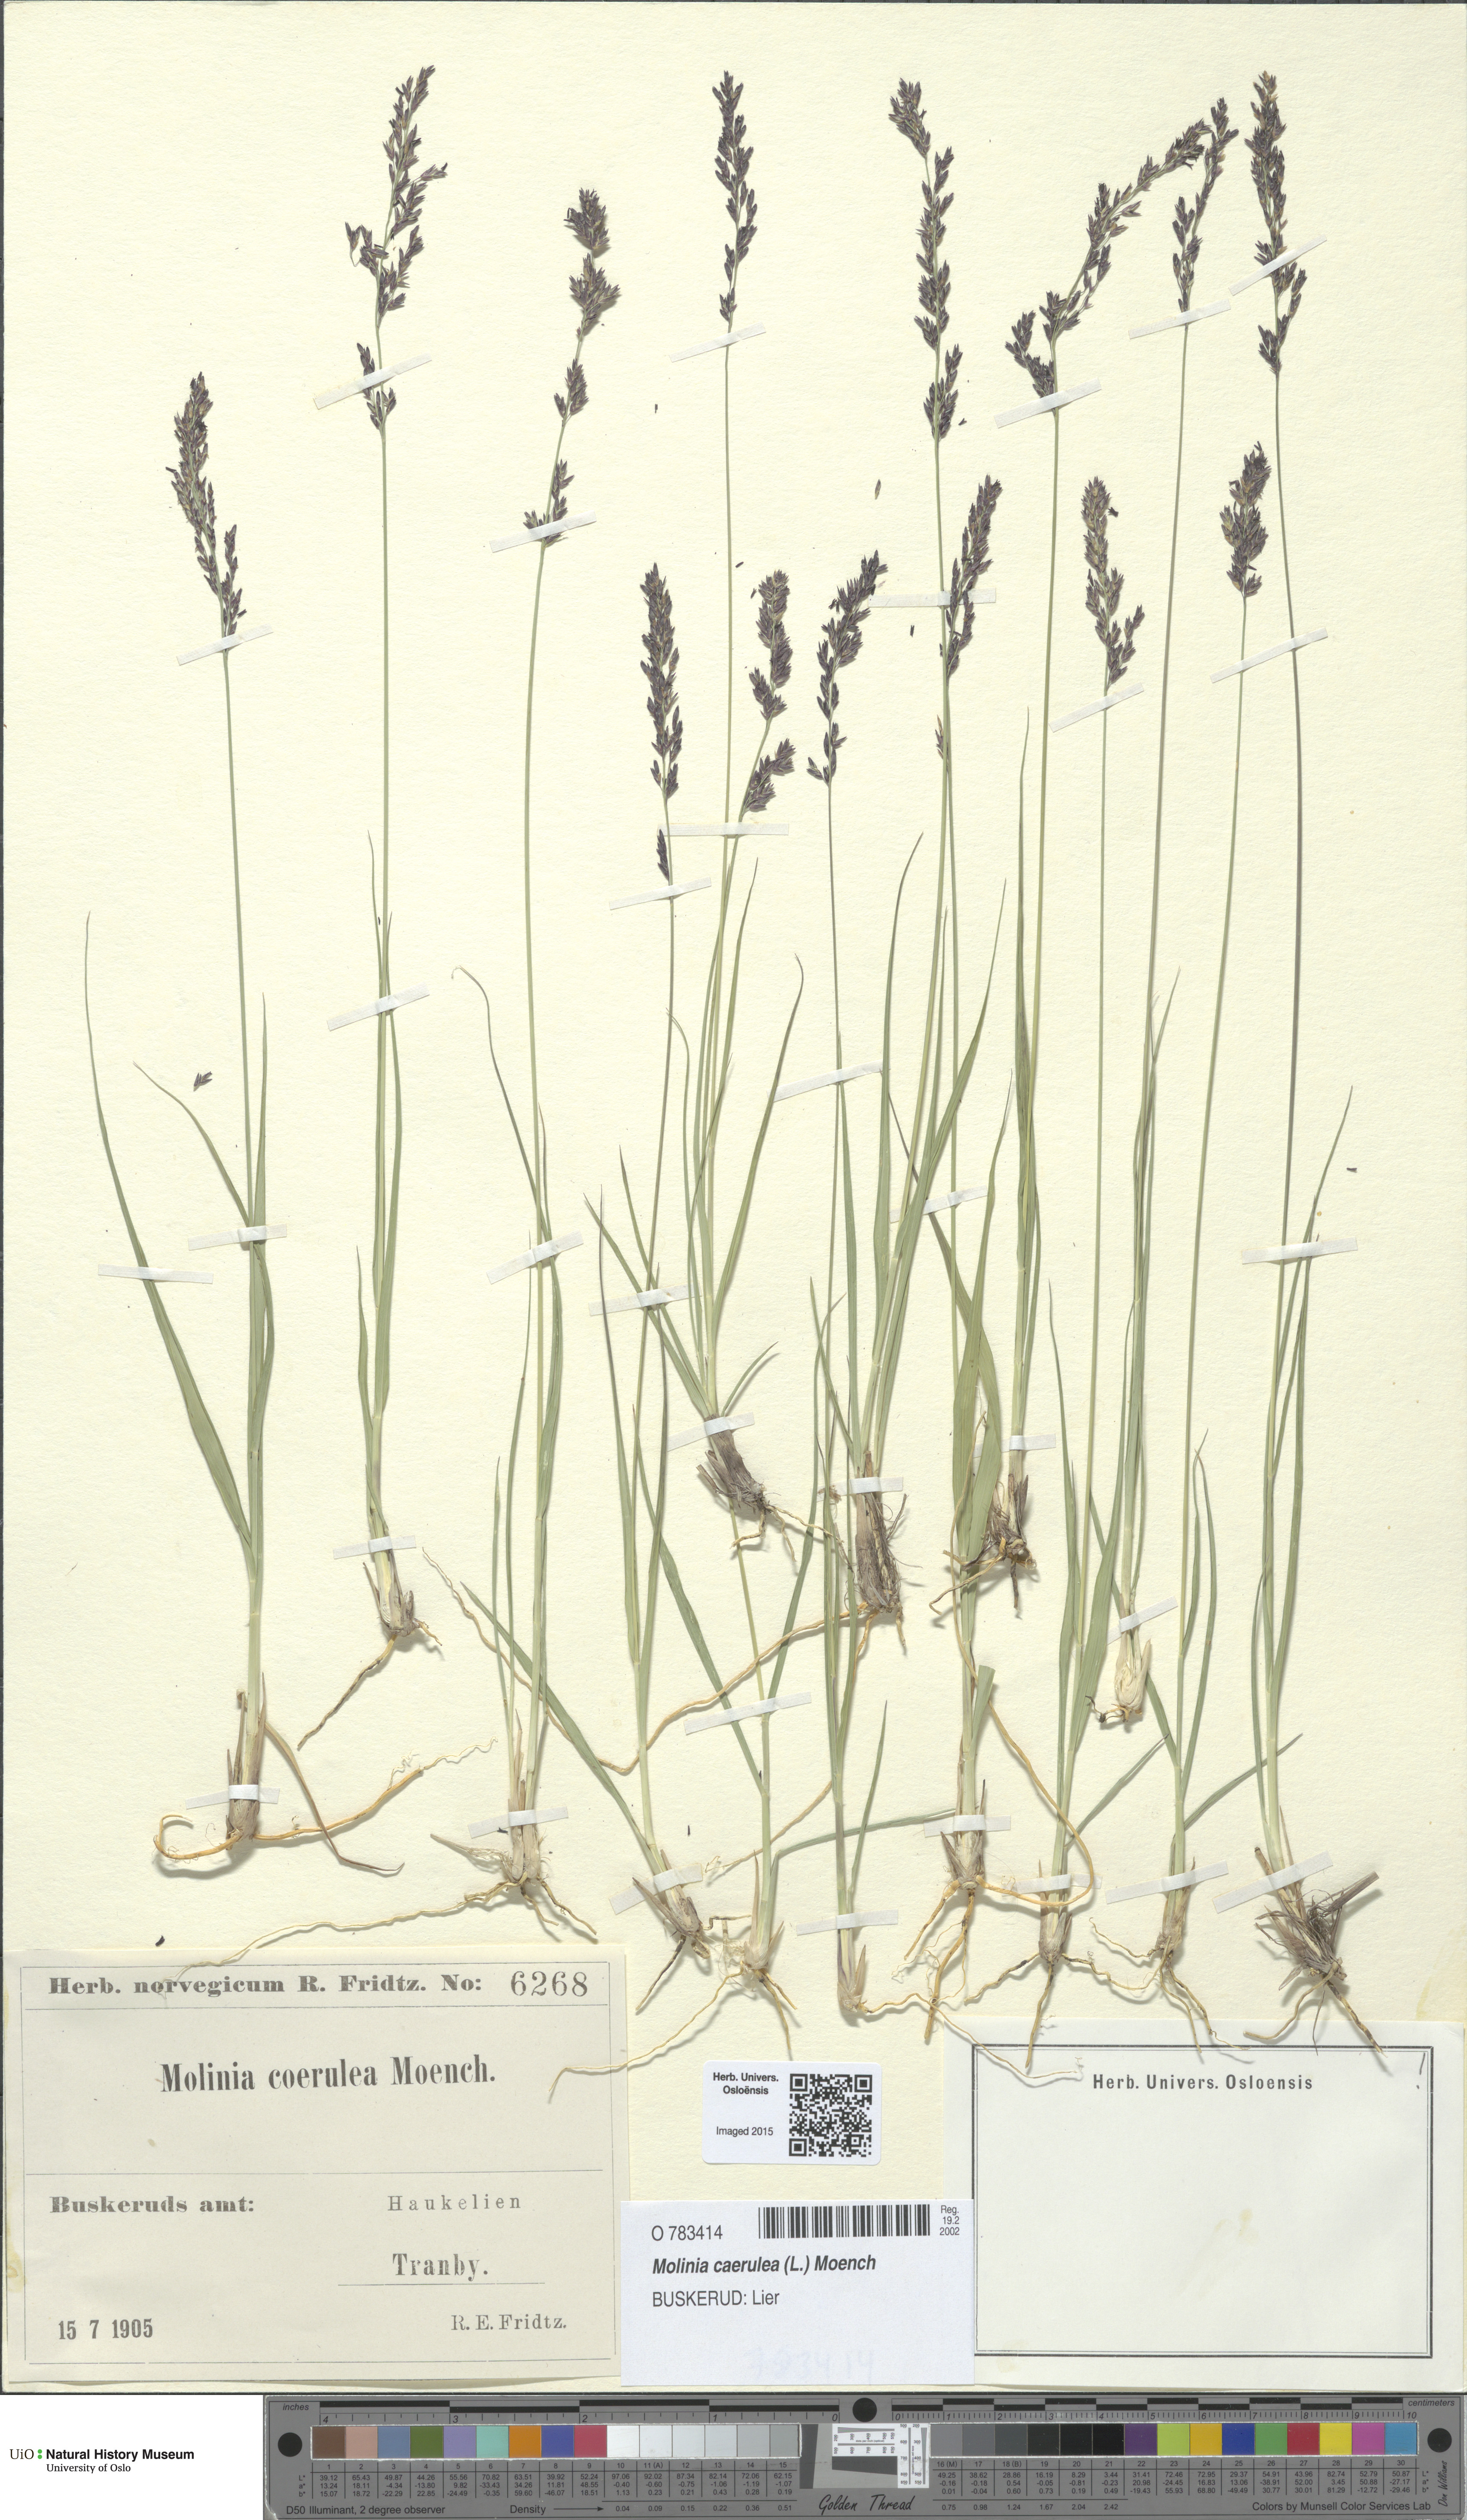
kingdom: Plantae
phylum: Tracheophyta
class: Liliopsida
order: Poales
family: Poaceae
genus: Molinia
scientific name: Molinia caerulea
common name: Purple moor-grass
